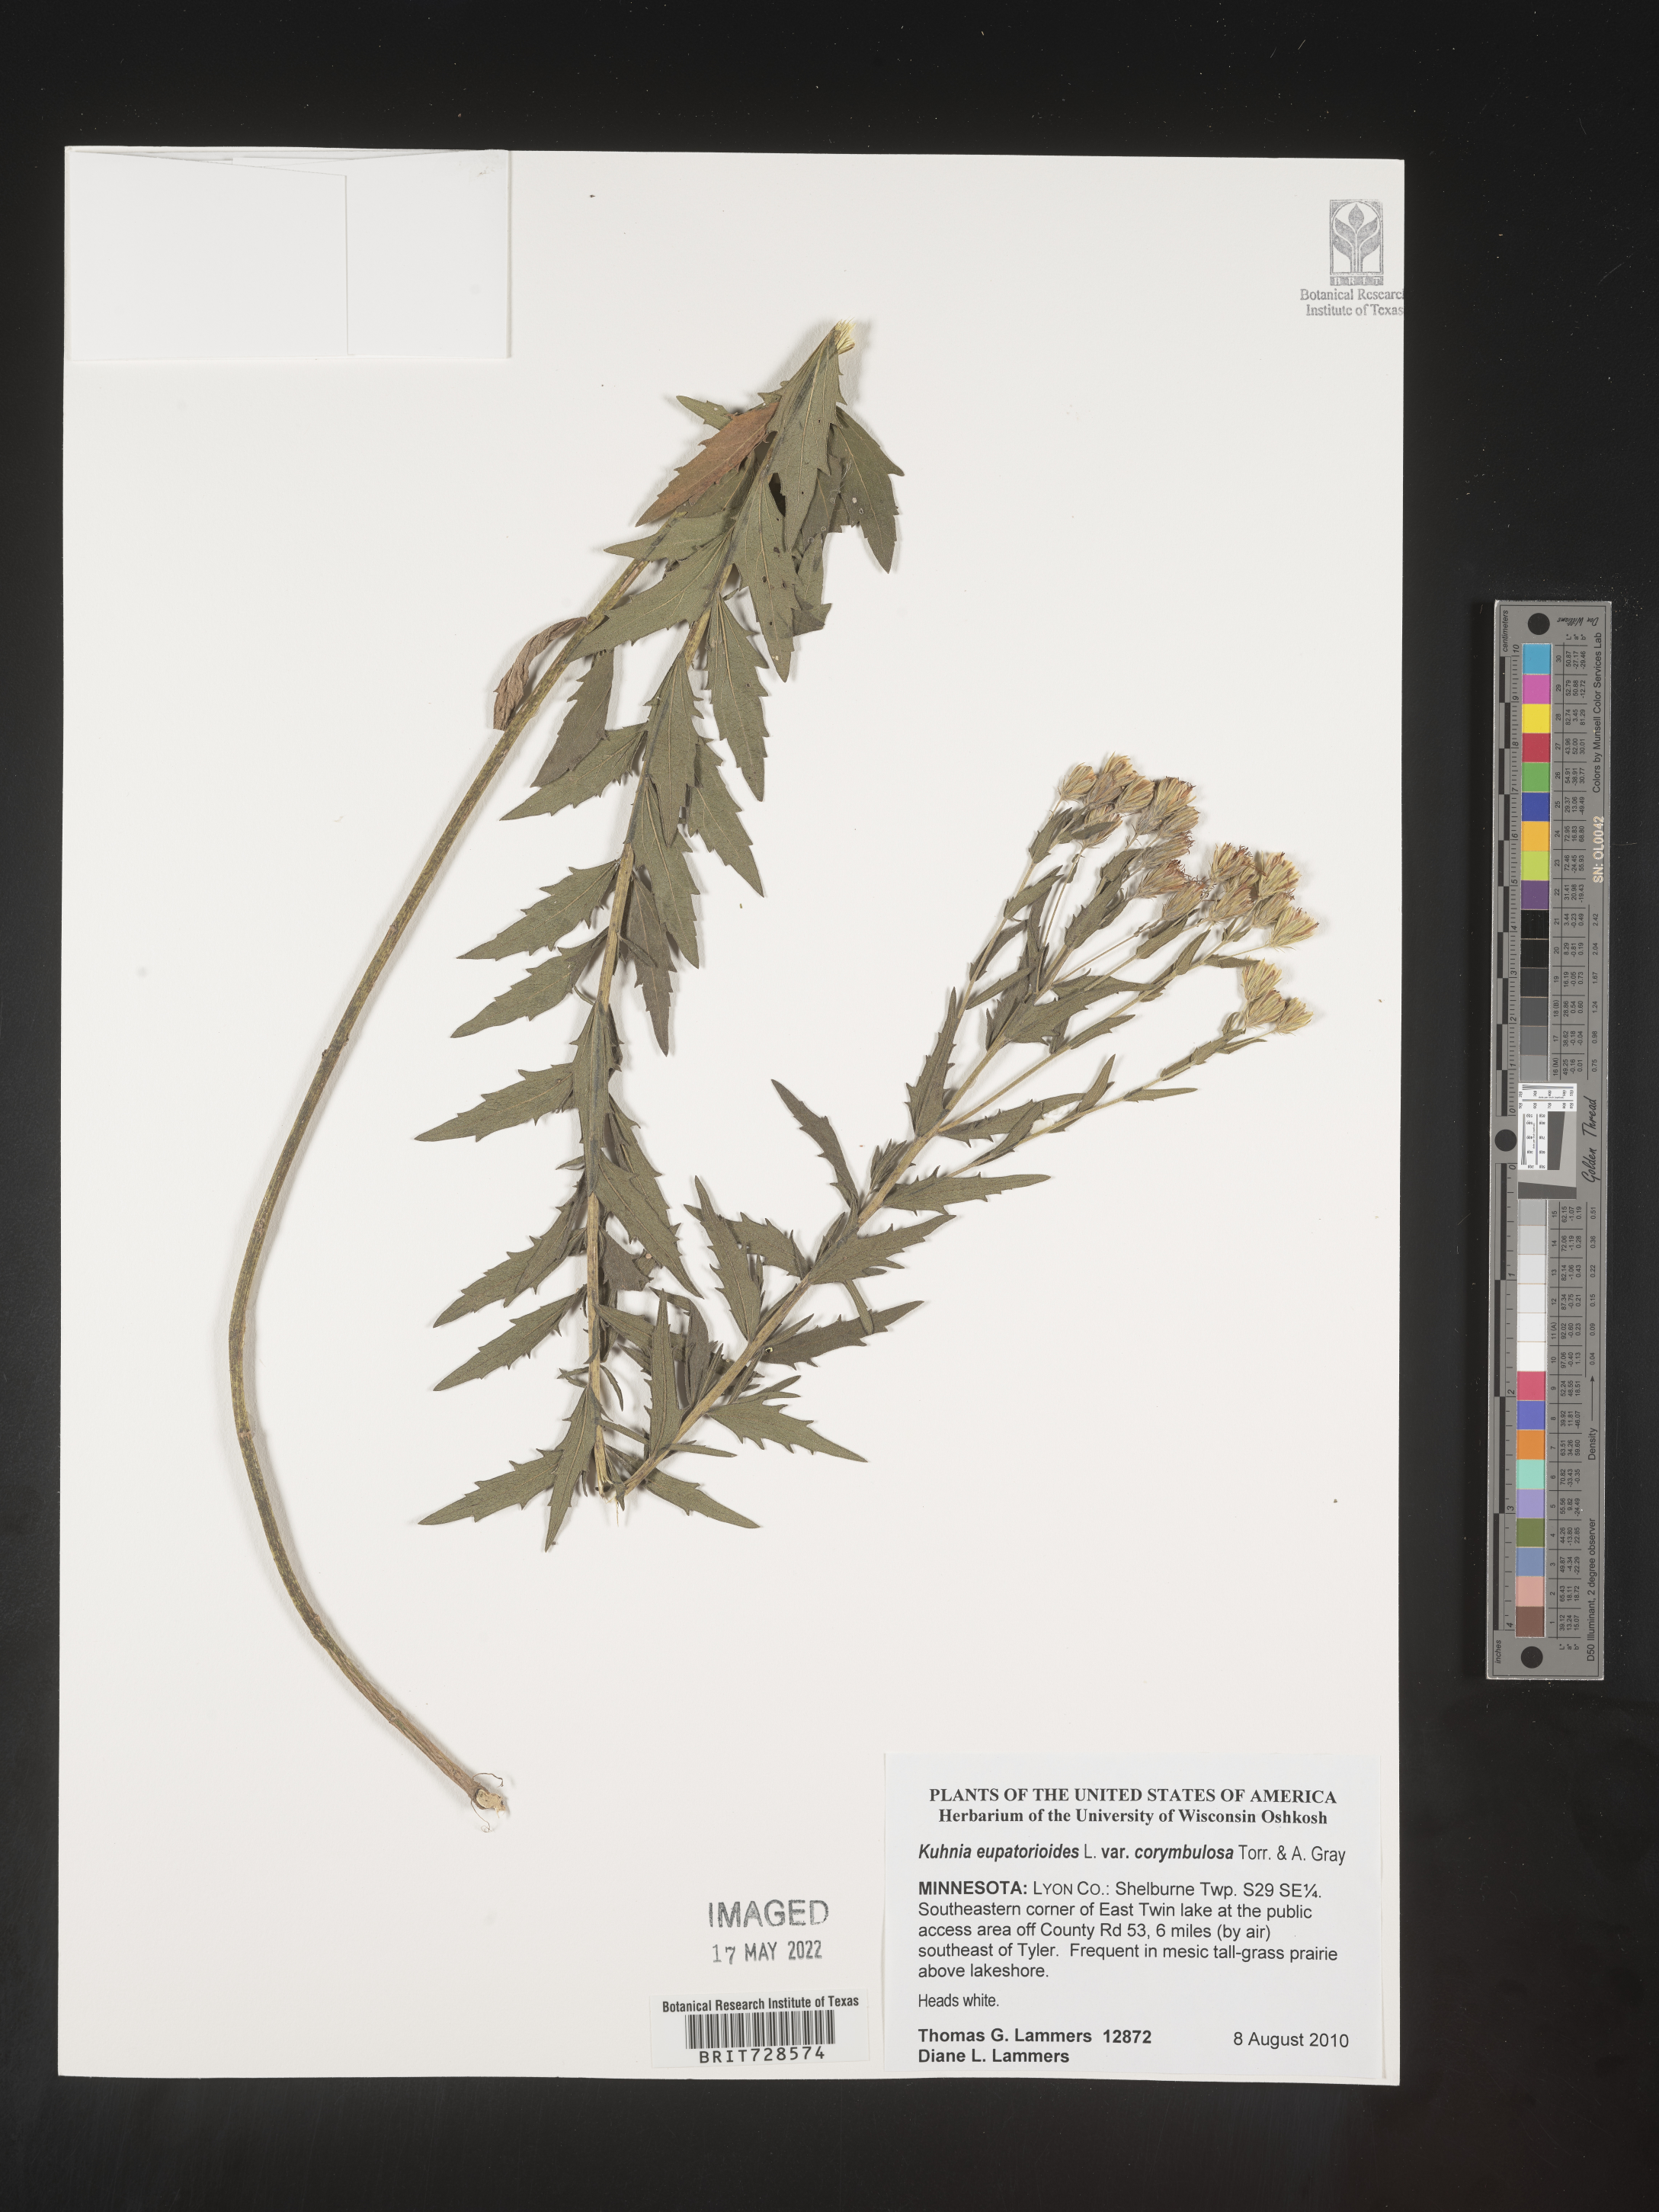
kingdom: Animalia
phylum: Platyhelminthes
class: Monogenea
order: Mazocraeidea
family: Mazocraeidae
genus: Kuhnia
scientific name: Kuhnia
